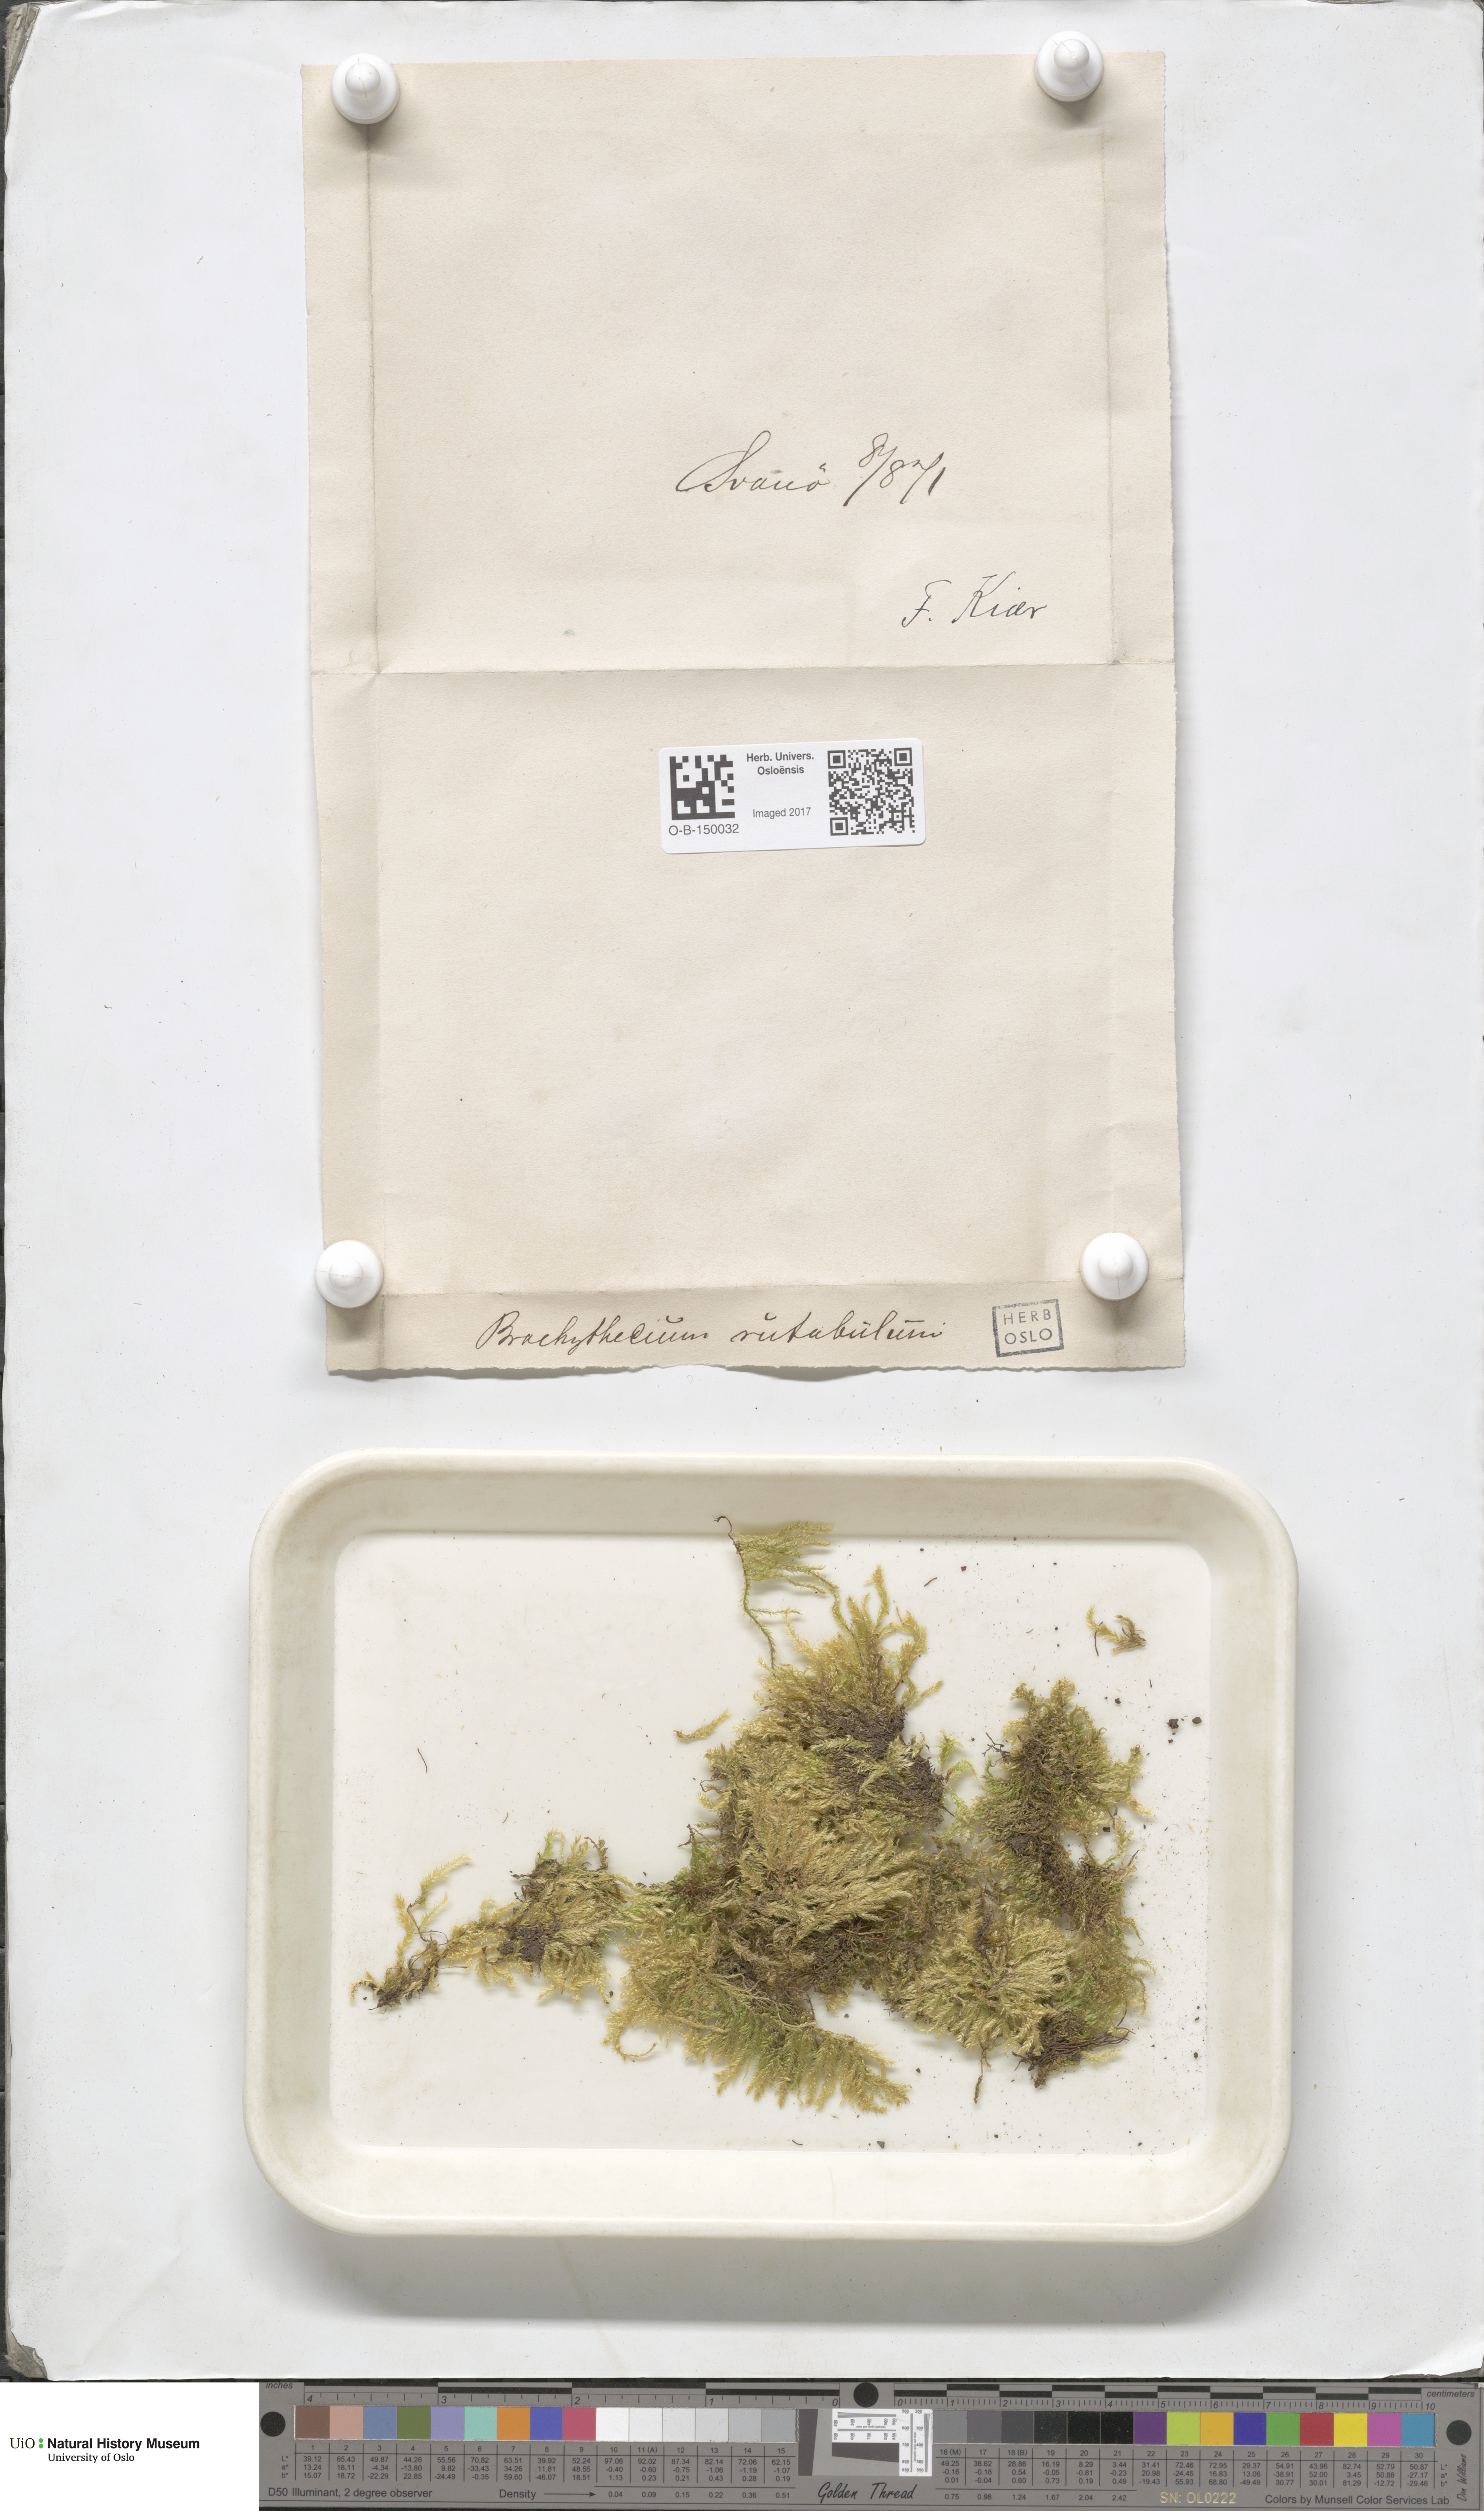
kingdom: Plantae
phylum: Bryophyta
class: Bryopsida
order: Hypnales
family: Brachytheciaceae
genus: Brachythecium
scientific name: Brachythecium rutabulum
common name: Rough-stalked feather-moss
